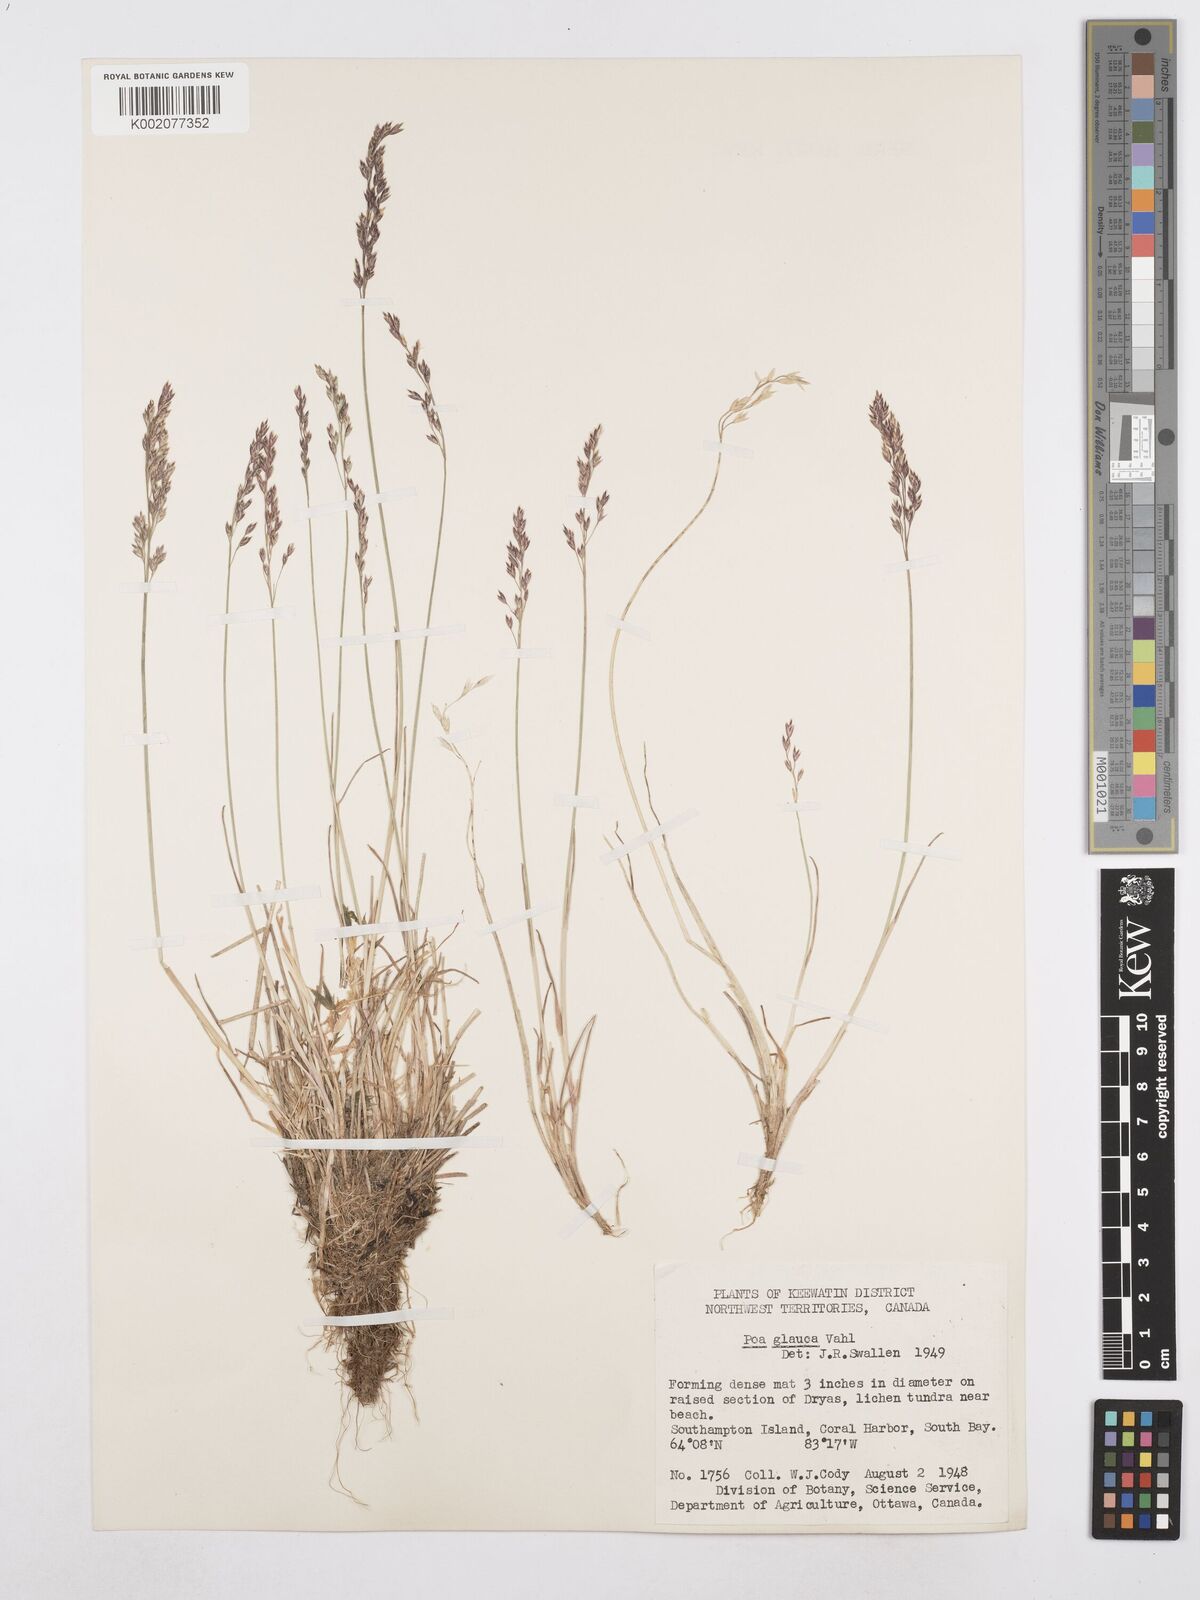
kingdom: Plantae
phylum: Tracheophyta
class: Liliopsida
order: Poales
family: Poaceae
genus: Poa
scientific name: Poa glauca
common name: Glaucous bluegrass
